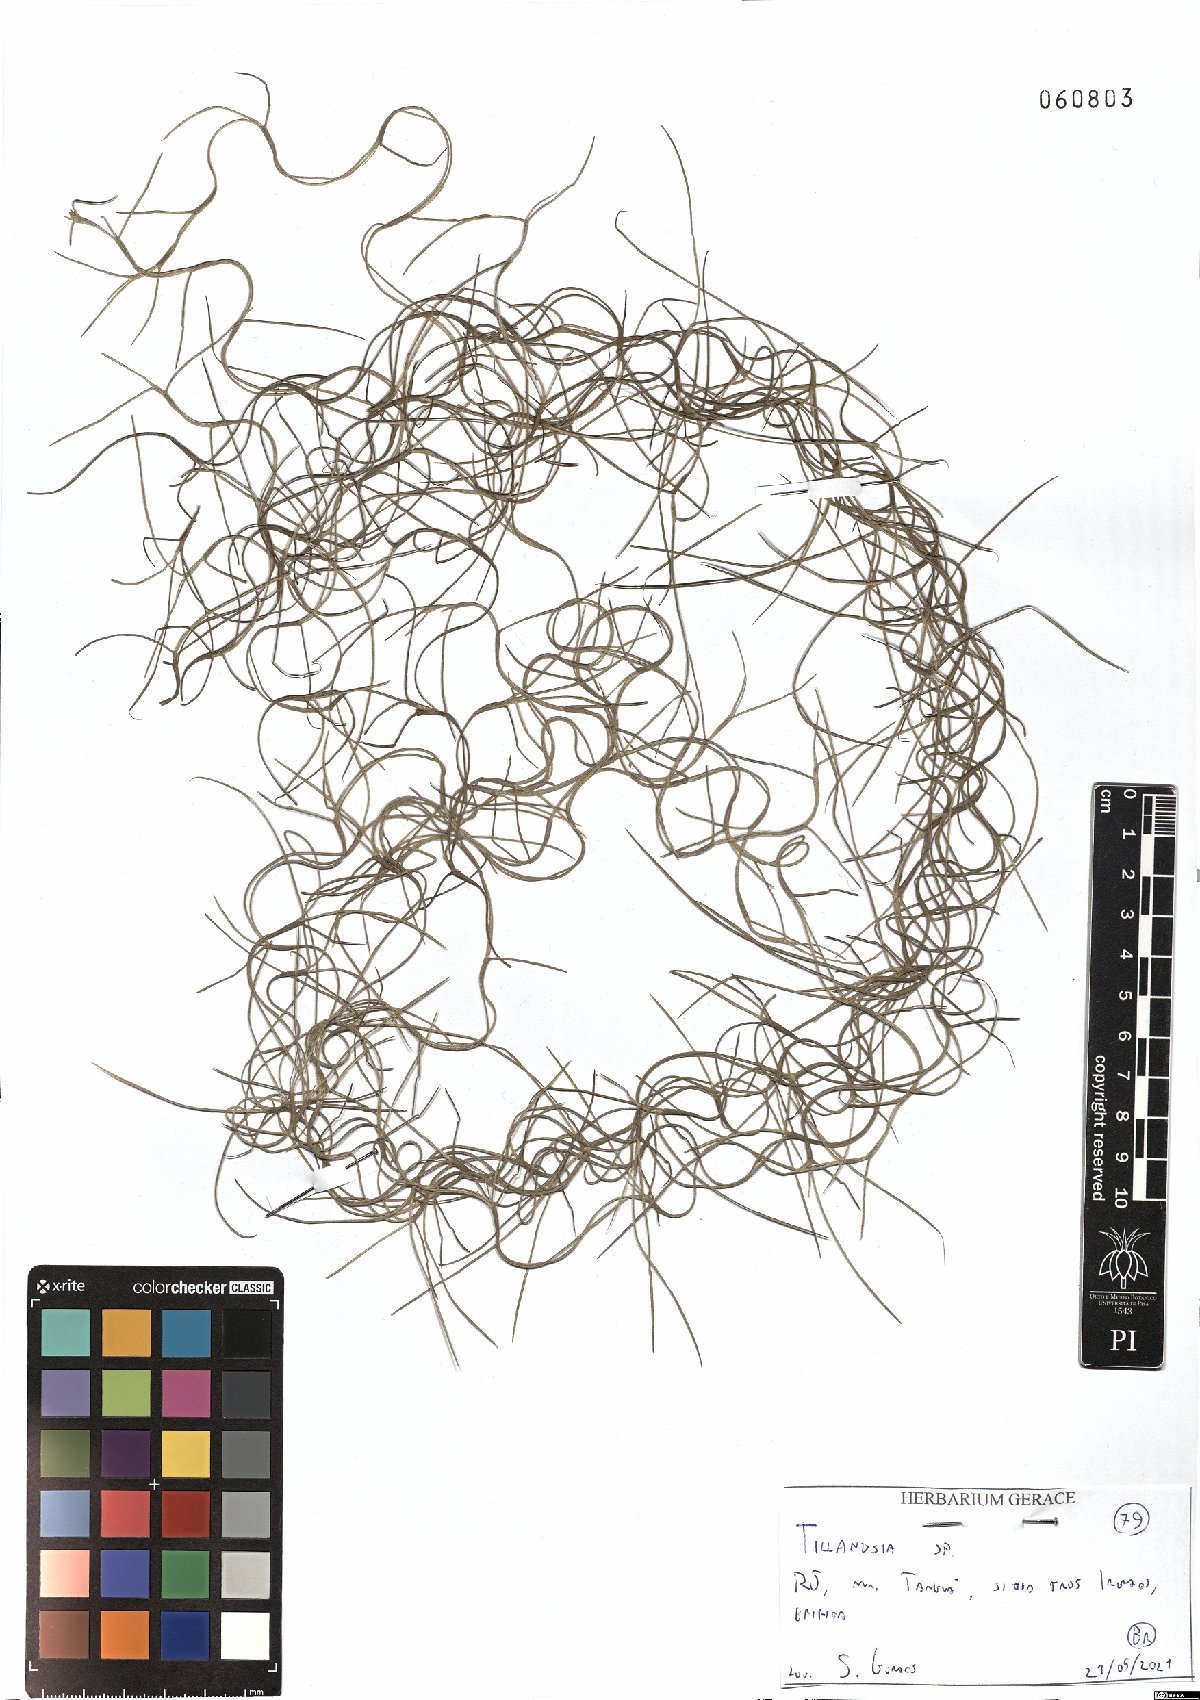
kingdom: Plantae
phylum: Tracheophyta
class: Liliopsida
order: Poales
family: Bromeliaceae
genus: Tillandsia
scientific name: Tillandsia
